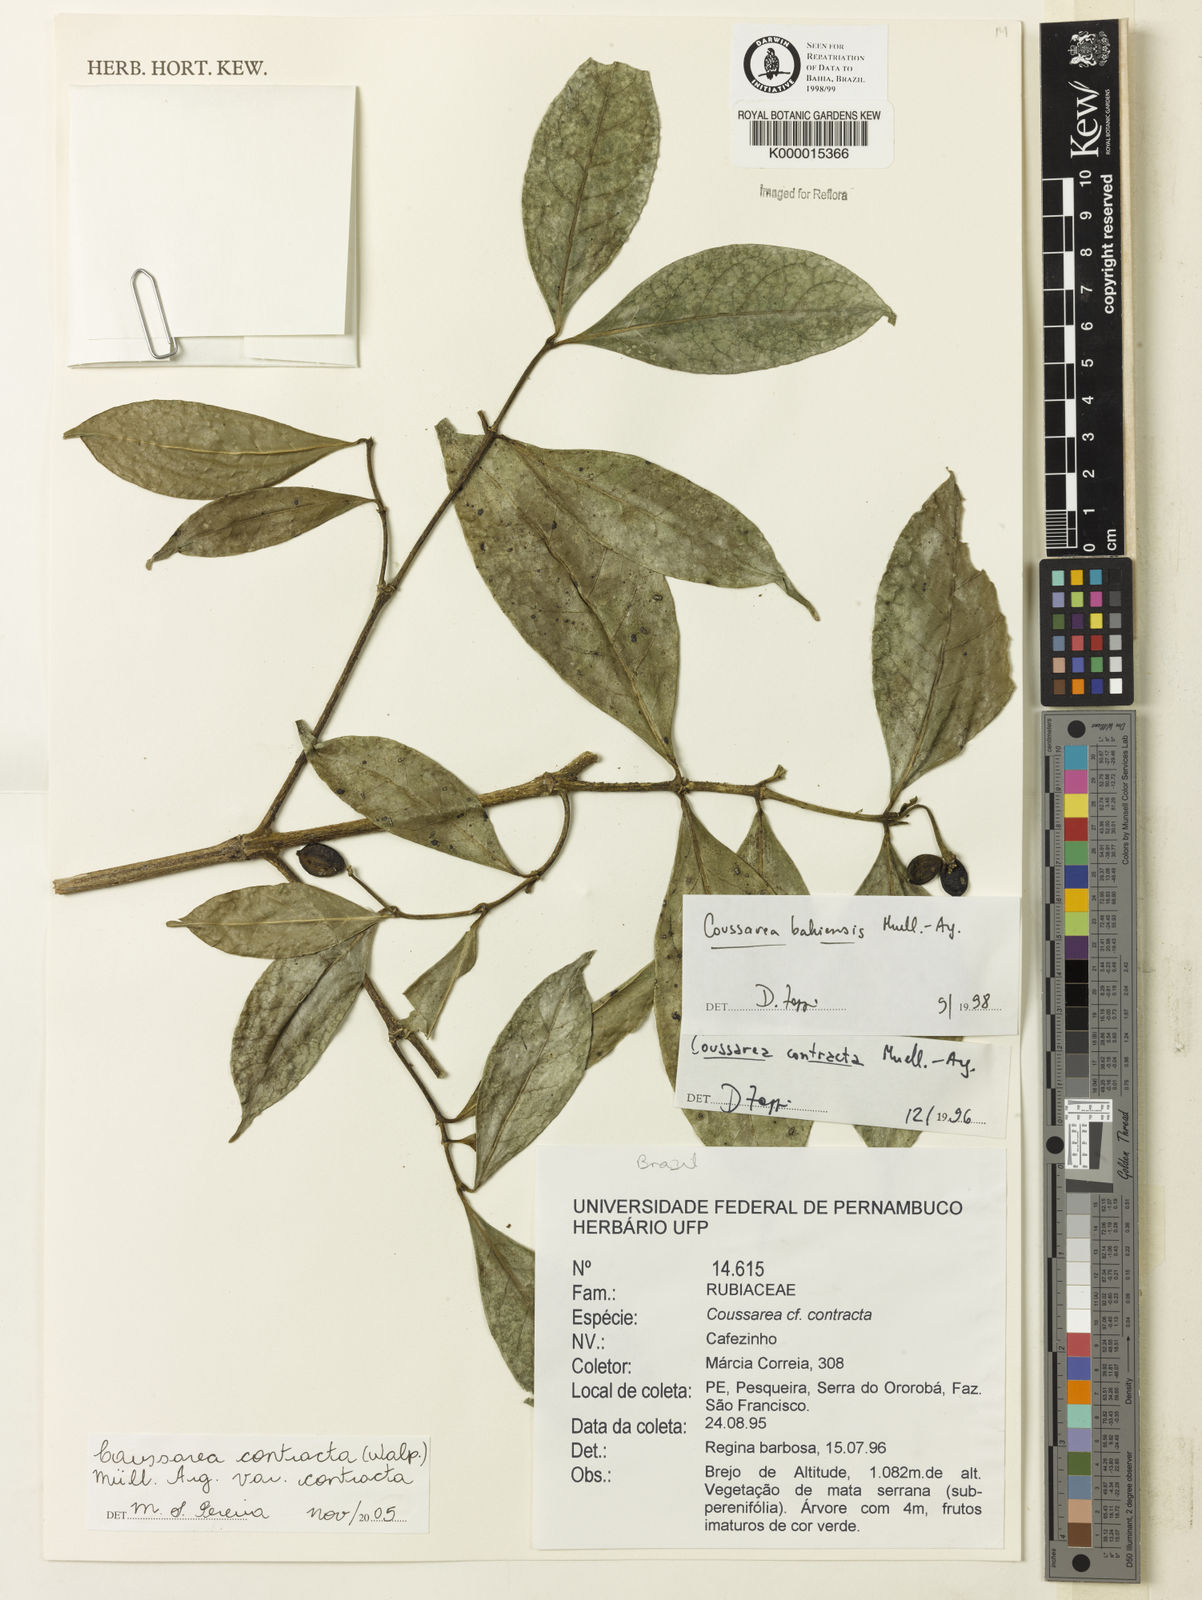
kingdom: Plantae
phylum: Tracheophyta
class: Magnoliopsida
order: Gentianales
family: Rubiaceae
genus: Coussarea
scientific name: Coussarea bahiensis
